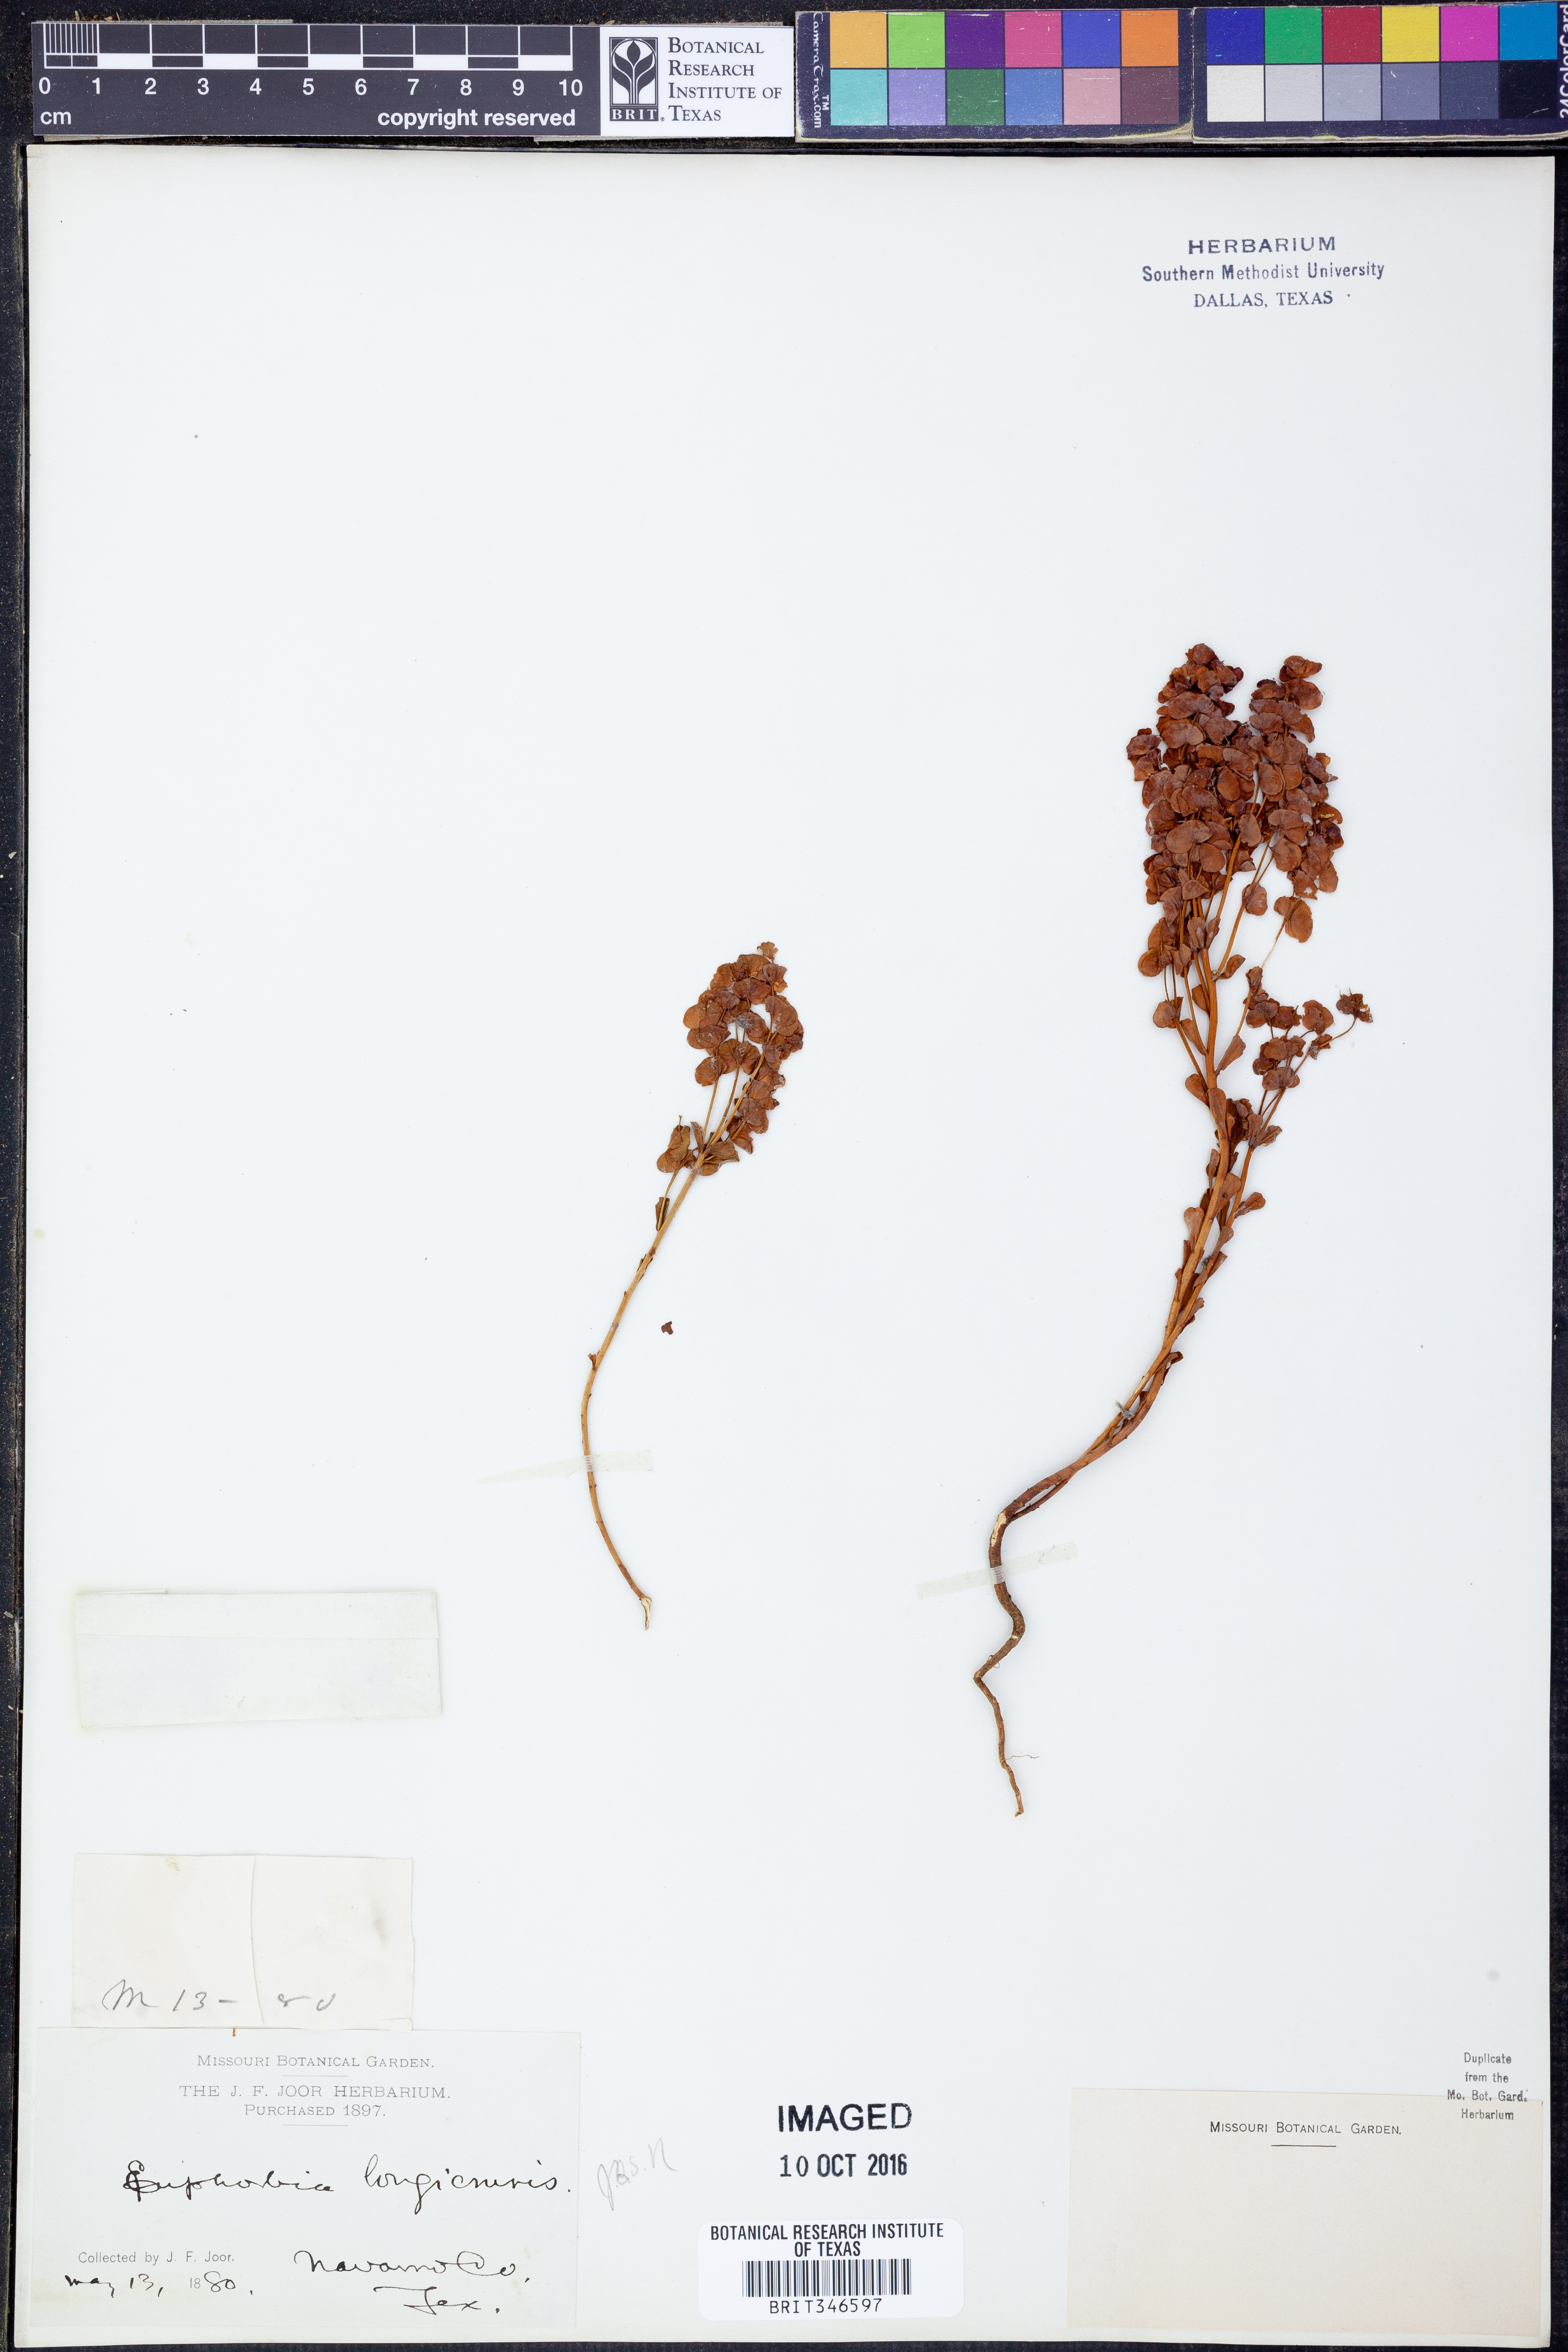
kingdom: Plantae
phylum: Tracheophyta
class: Magnoliopsida
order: Malpighiales
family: Euphorbiaceae
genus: Euphorbia
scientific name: Euphorbia longicruris
